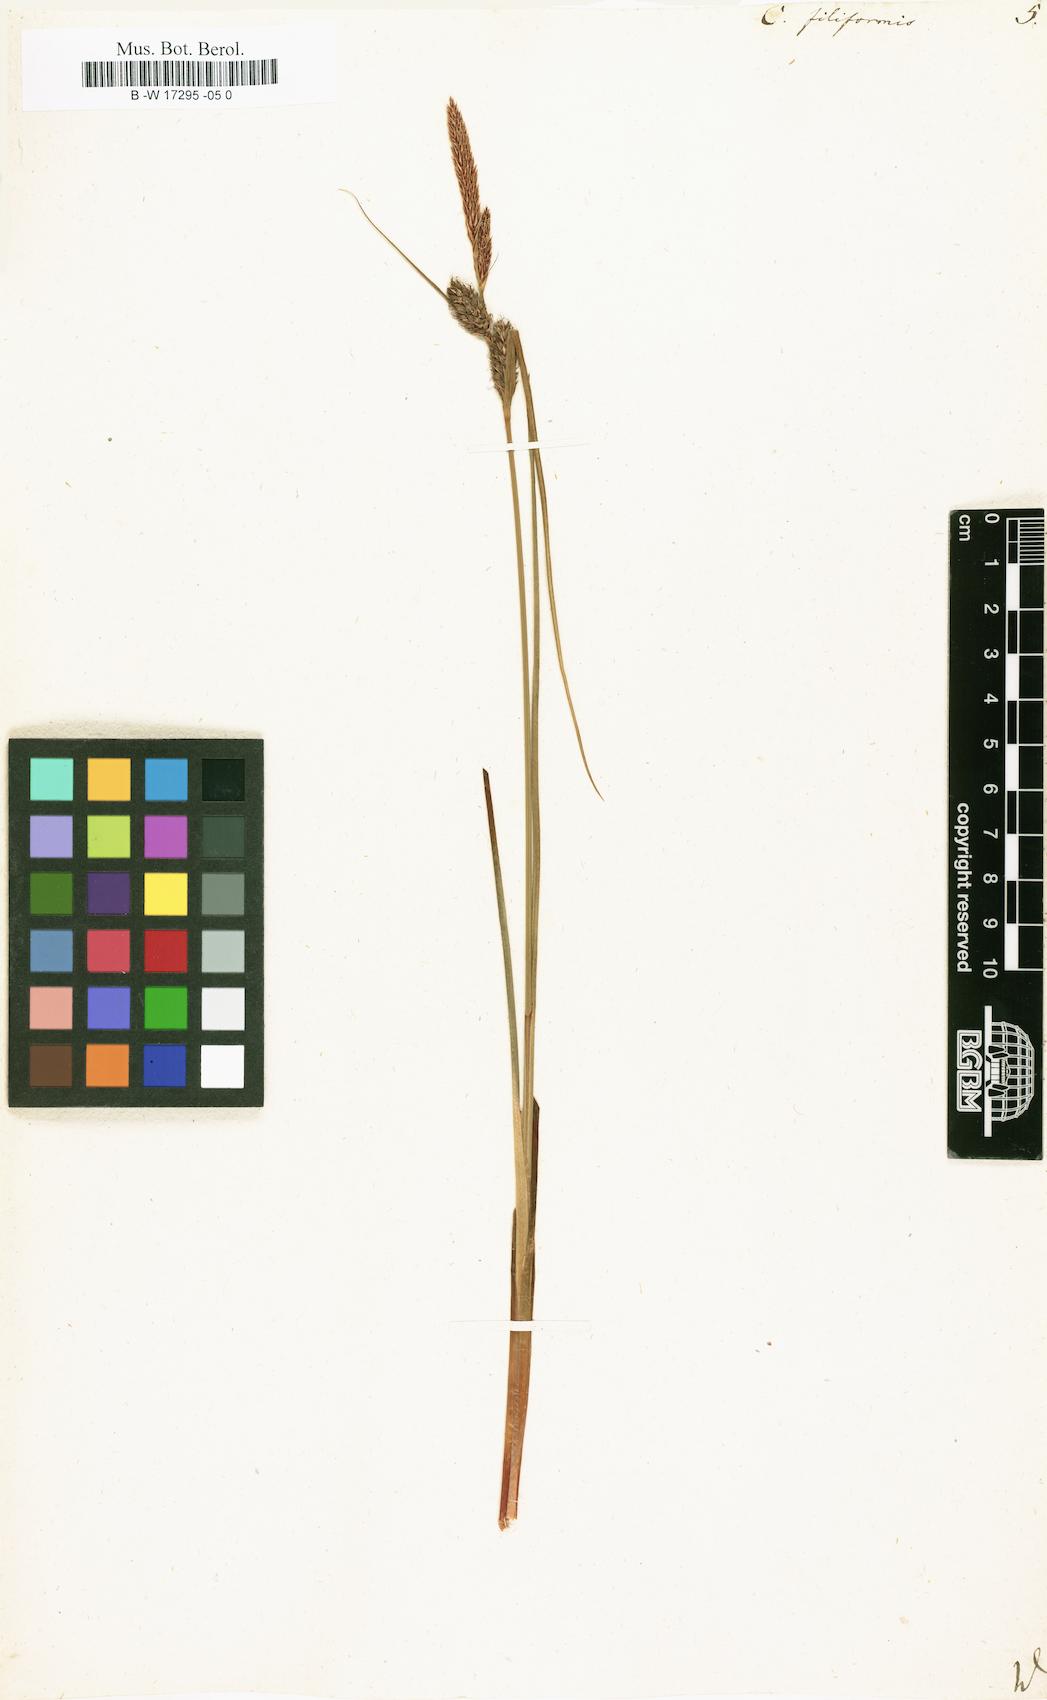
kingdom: Plantae
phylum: Tracheophyta
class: Liliopsida
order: Poales
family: Cyperaceae
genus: Carex
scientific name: Carex montana
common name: Soft-leaved sedge
